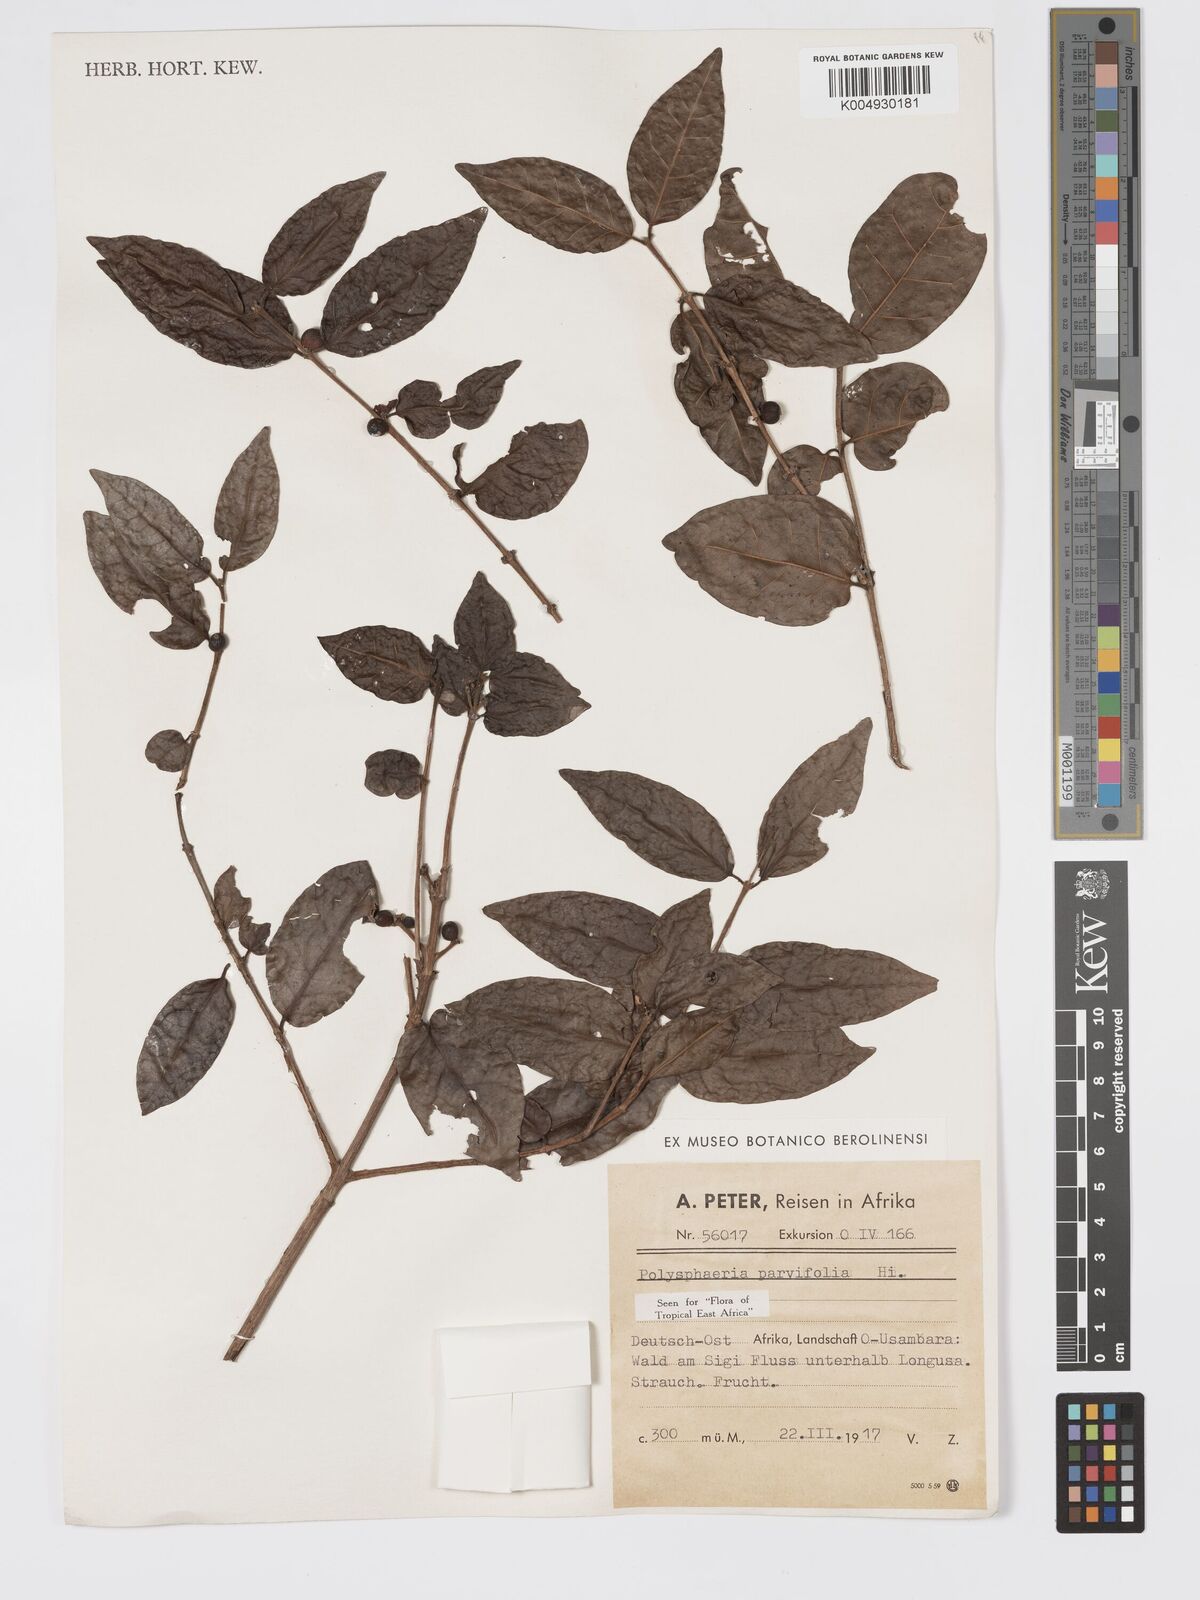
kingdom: Plantae
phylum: Tracheophyta
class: Magnoliopsida
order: Gentianales
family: Rubiaceae
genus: Polysphaeria
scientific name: Polysphaeria parvifolia
